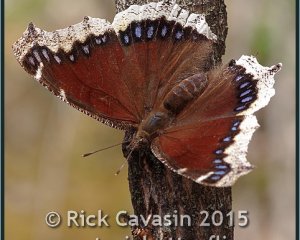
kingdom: Animalia
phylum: Arthropoda
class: Insecta
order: Lepidoptera
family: Nymphalidae
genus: Nymphalis
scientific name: Nymphalis antiopa
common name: Mourning Cloak
